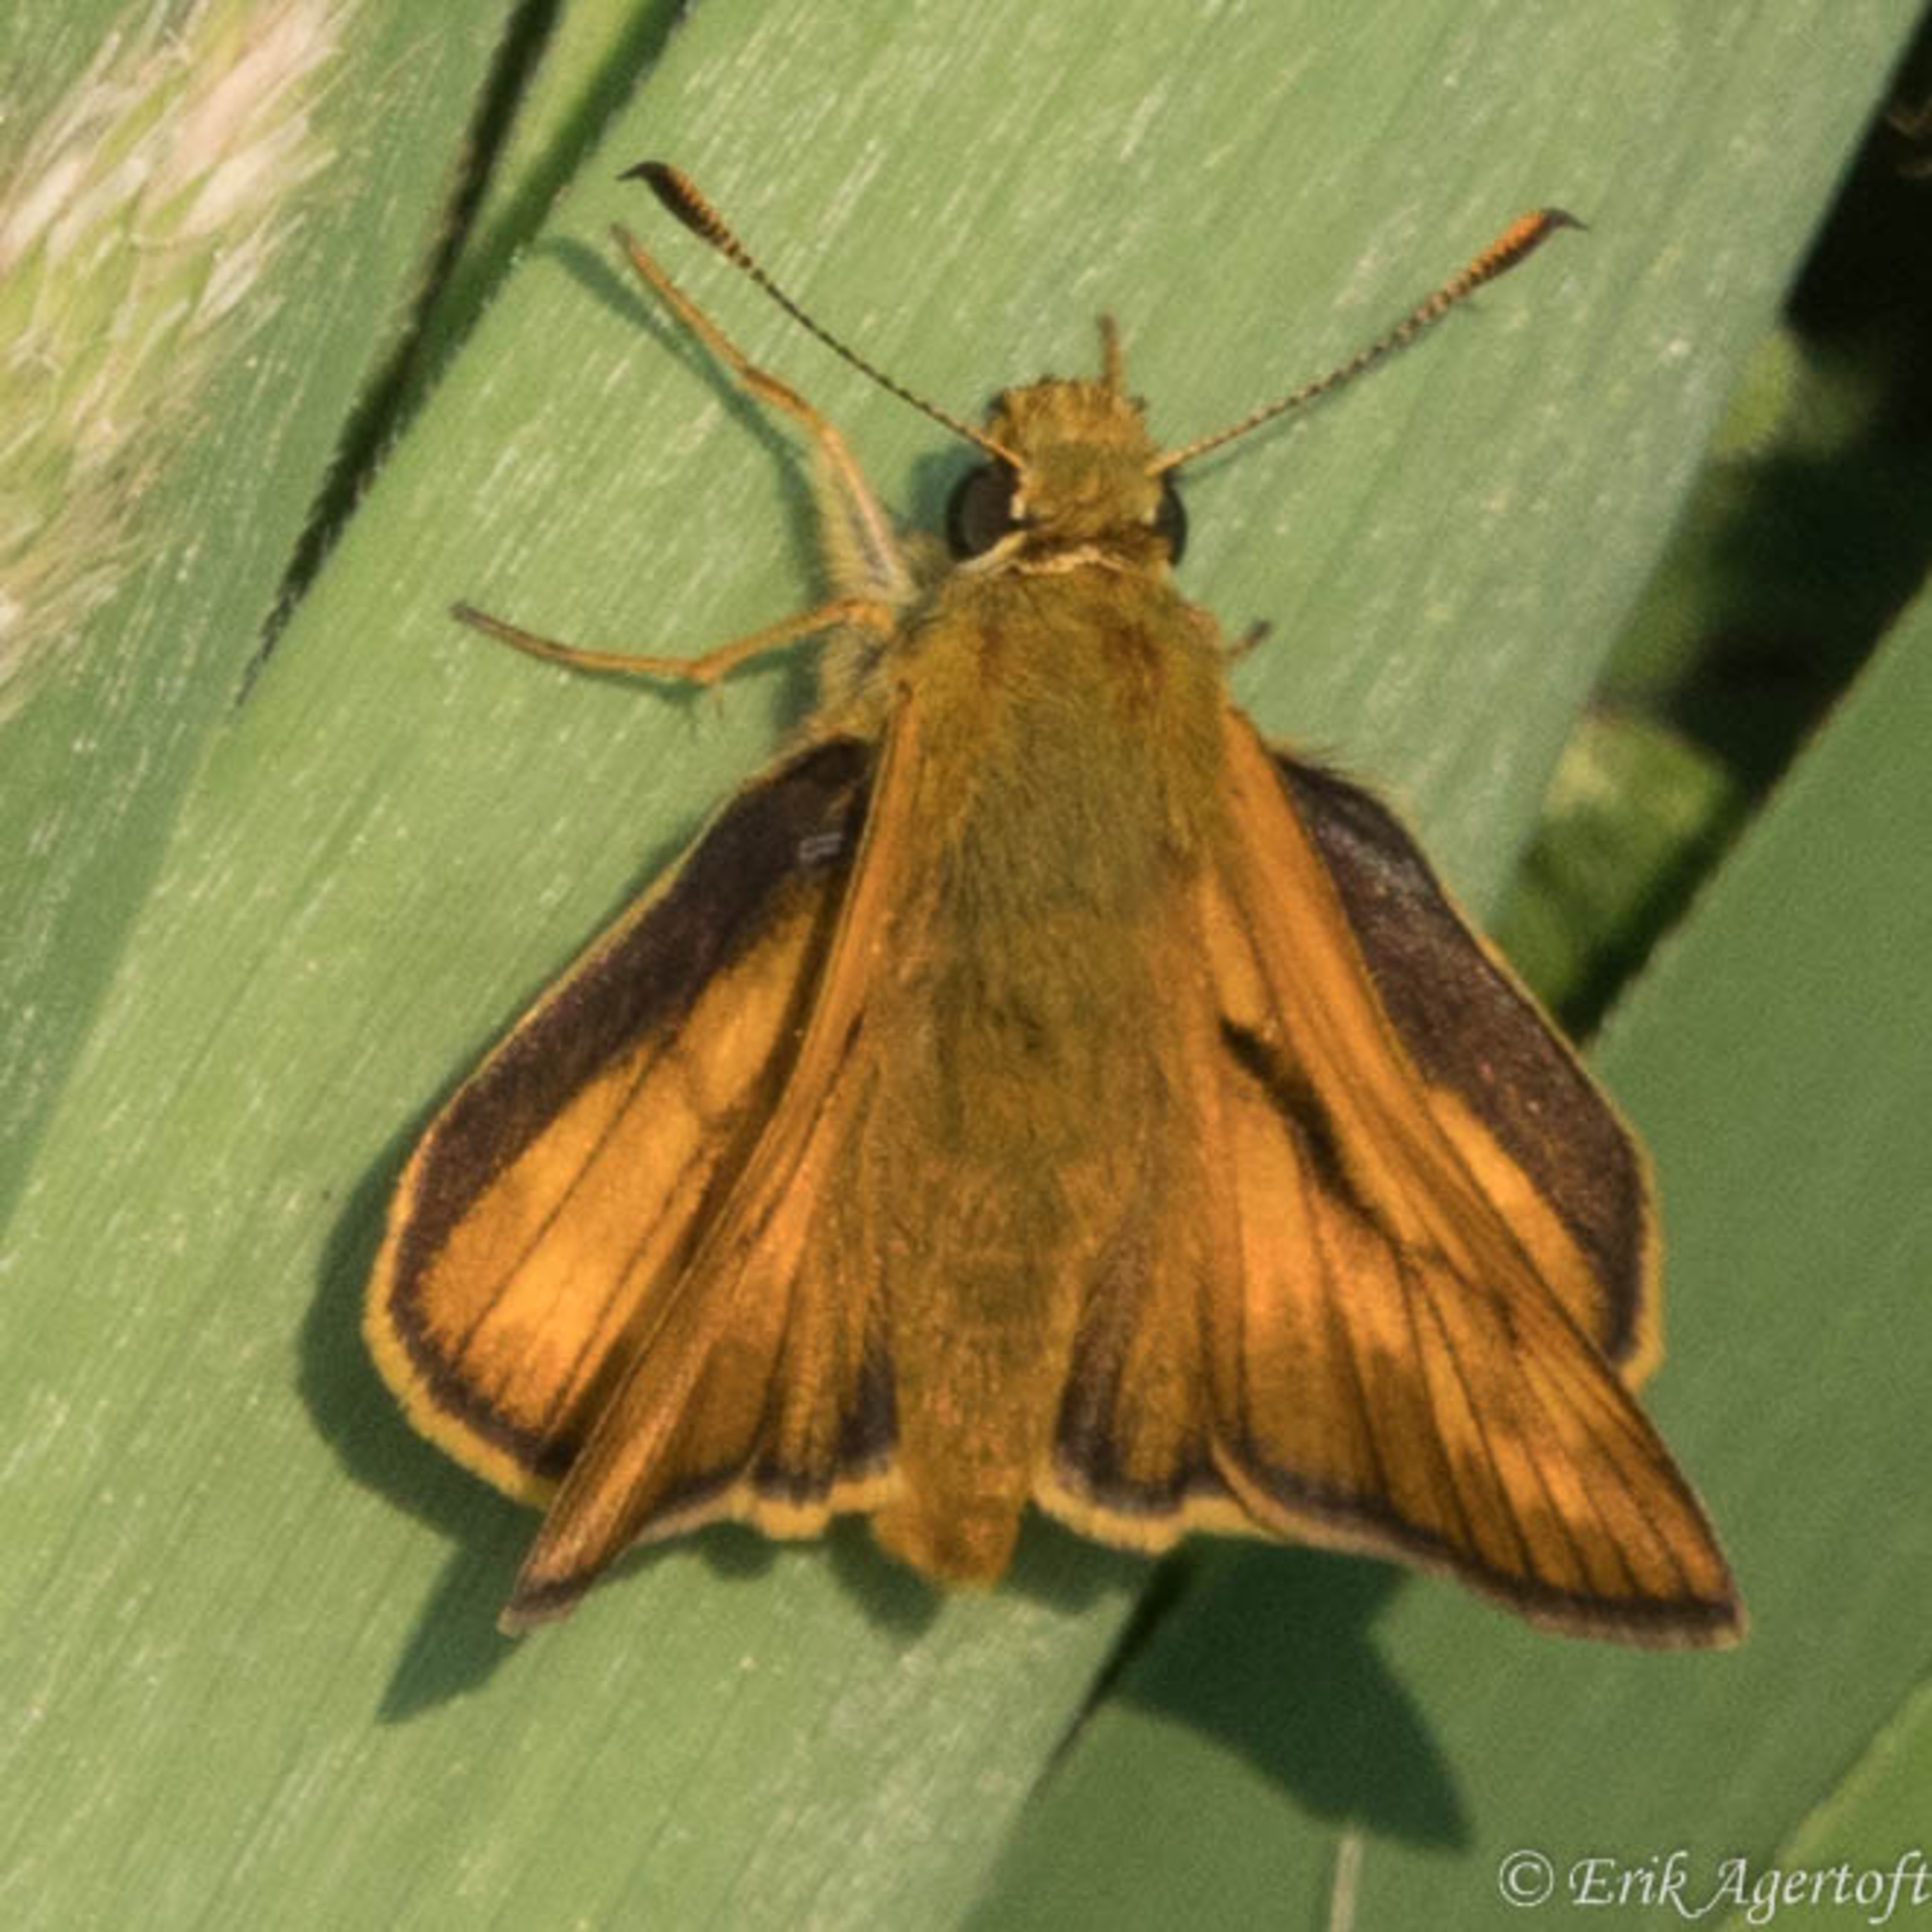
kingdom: Animalia
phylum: Arthropoda
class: Insecta
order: Lepidoptera
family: Hesperiidae
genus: Ochlodes
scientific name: Ochlodes venata
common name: Stor bredpande
